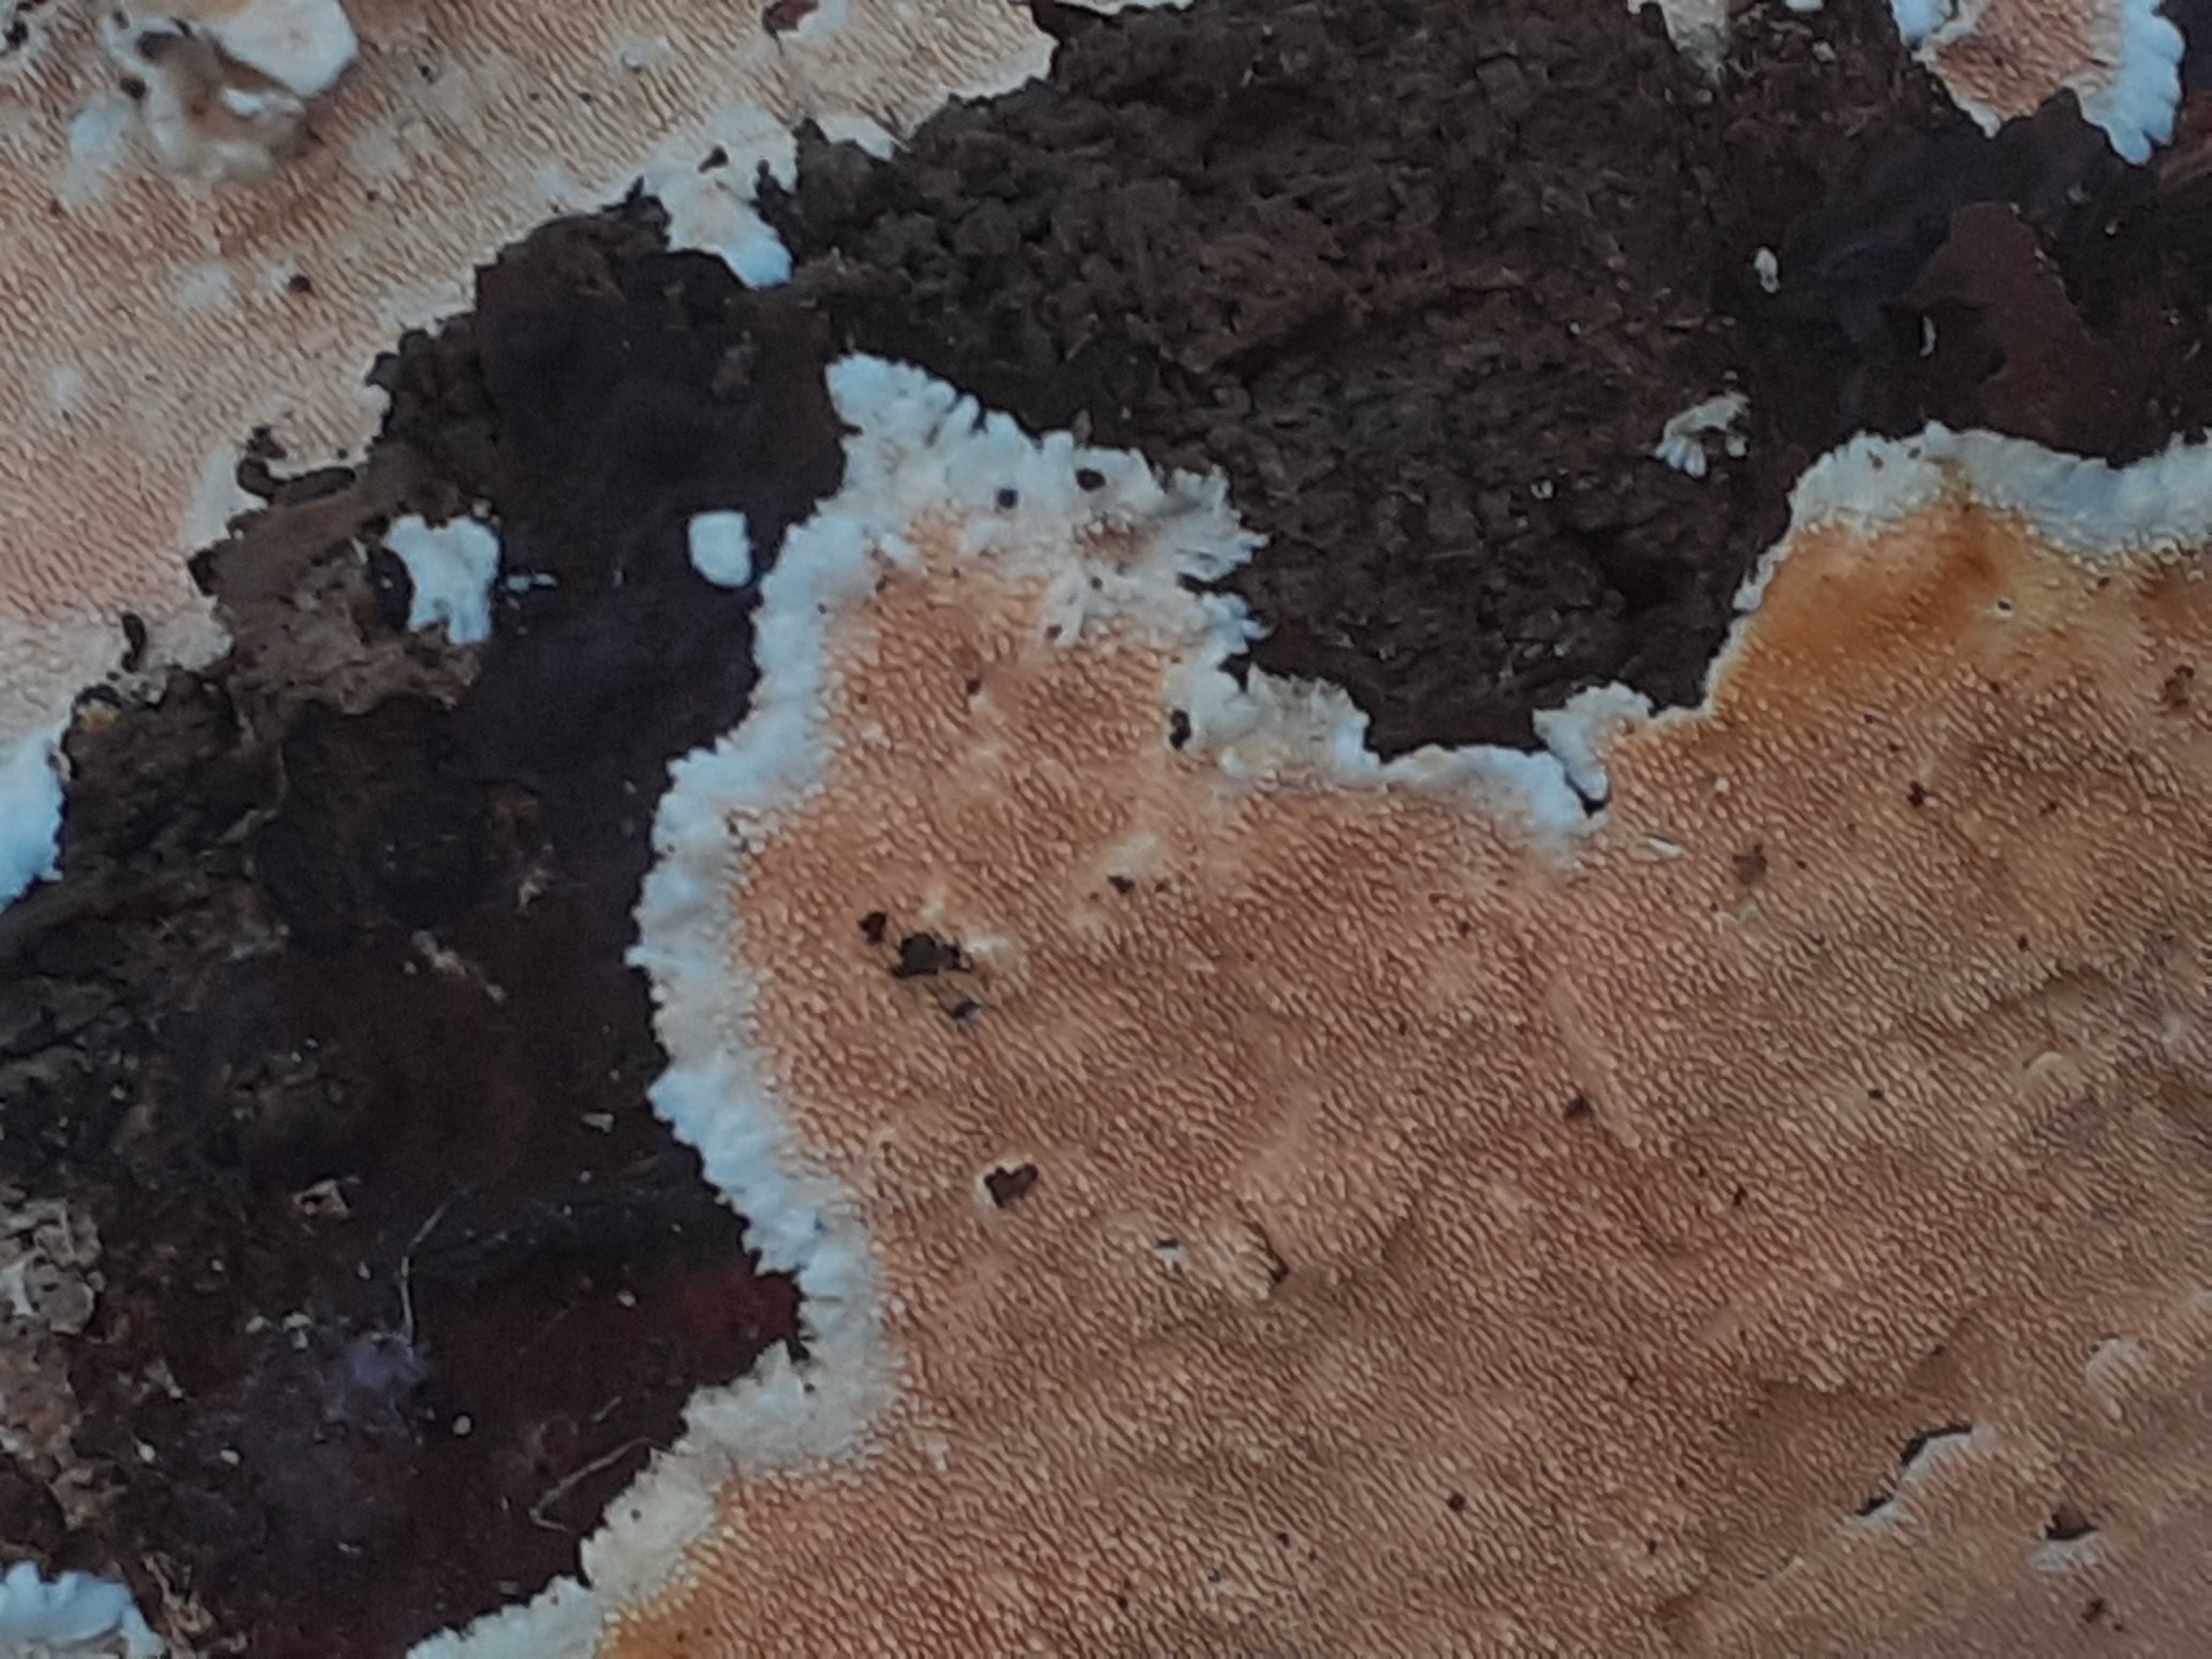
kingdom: Fungi
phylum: Basidiomycota
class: Agaricomycetes
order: Polyporales
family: Steccherinaceae
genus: Steccherinum
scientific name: Steccherinum ochraceum
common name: almindelig skønpig
